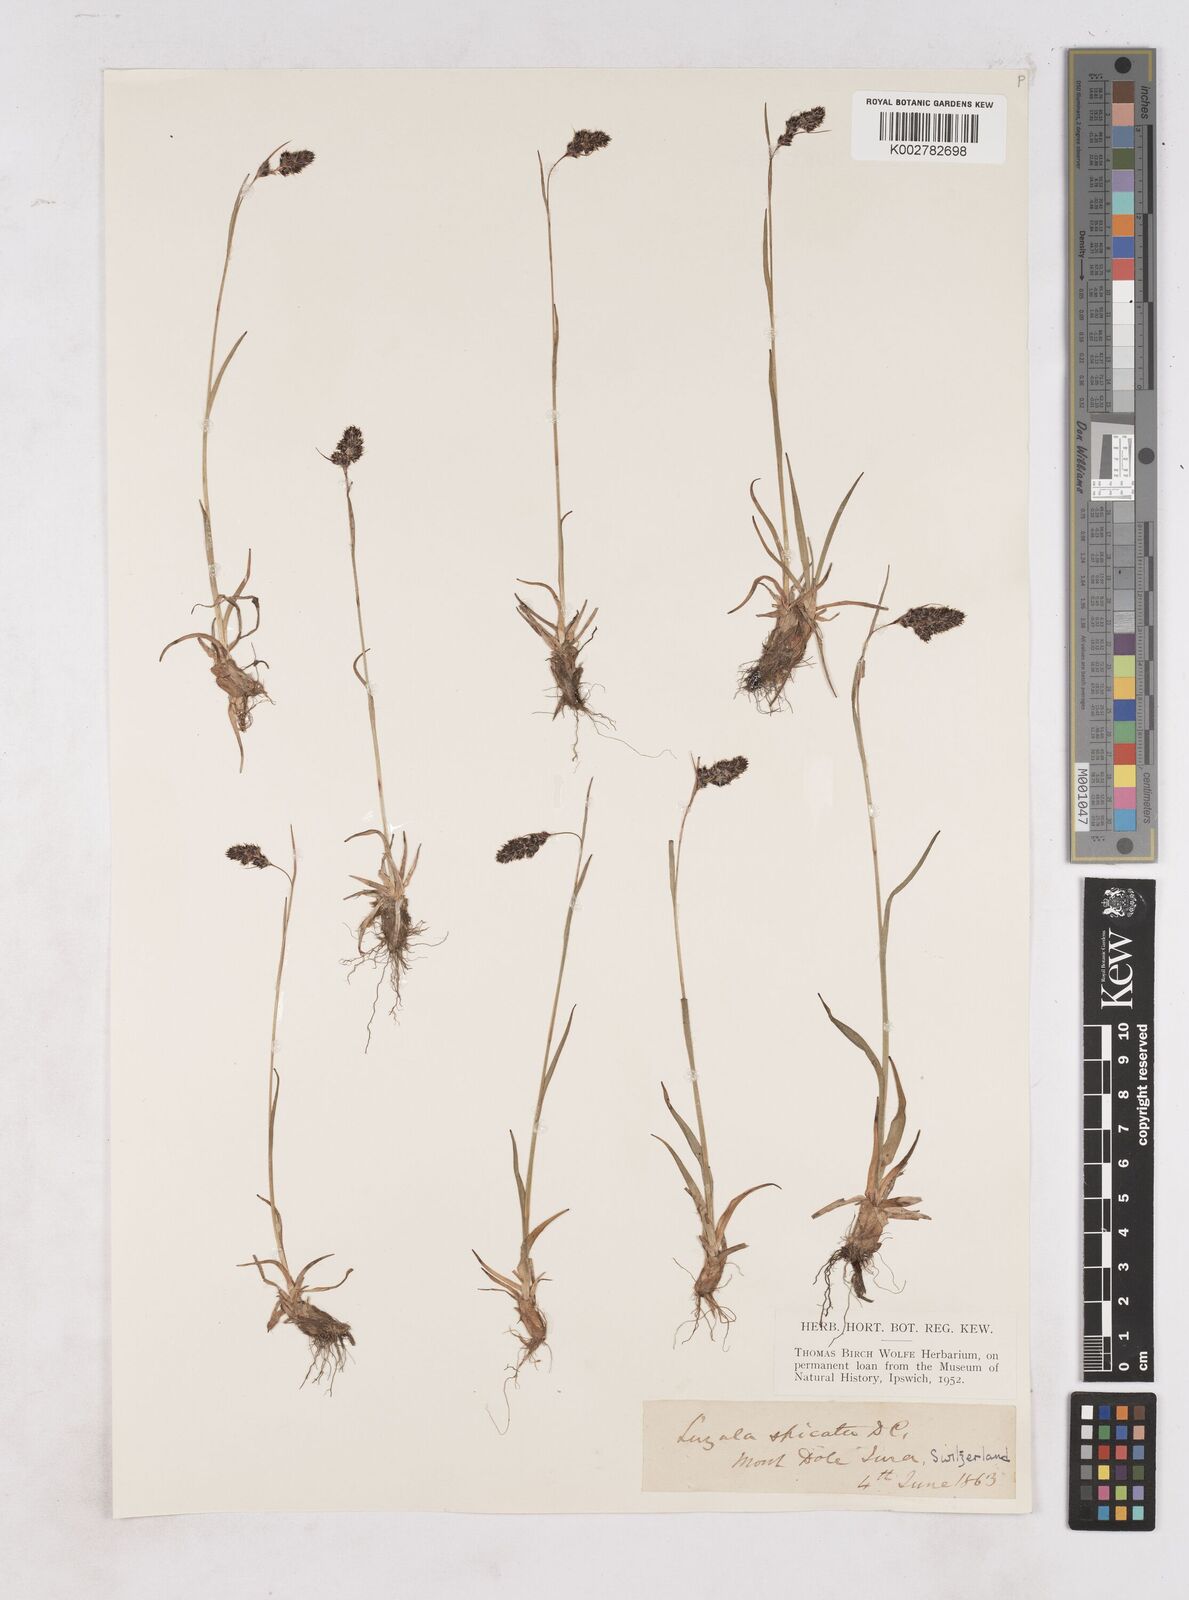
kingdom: Plantae
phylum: Tracheophyta
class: Liliopsida
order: Poales
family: Juncaceae
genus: Luzula
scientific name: Luzula spicata
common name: Spiked wood-rush
